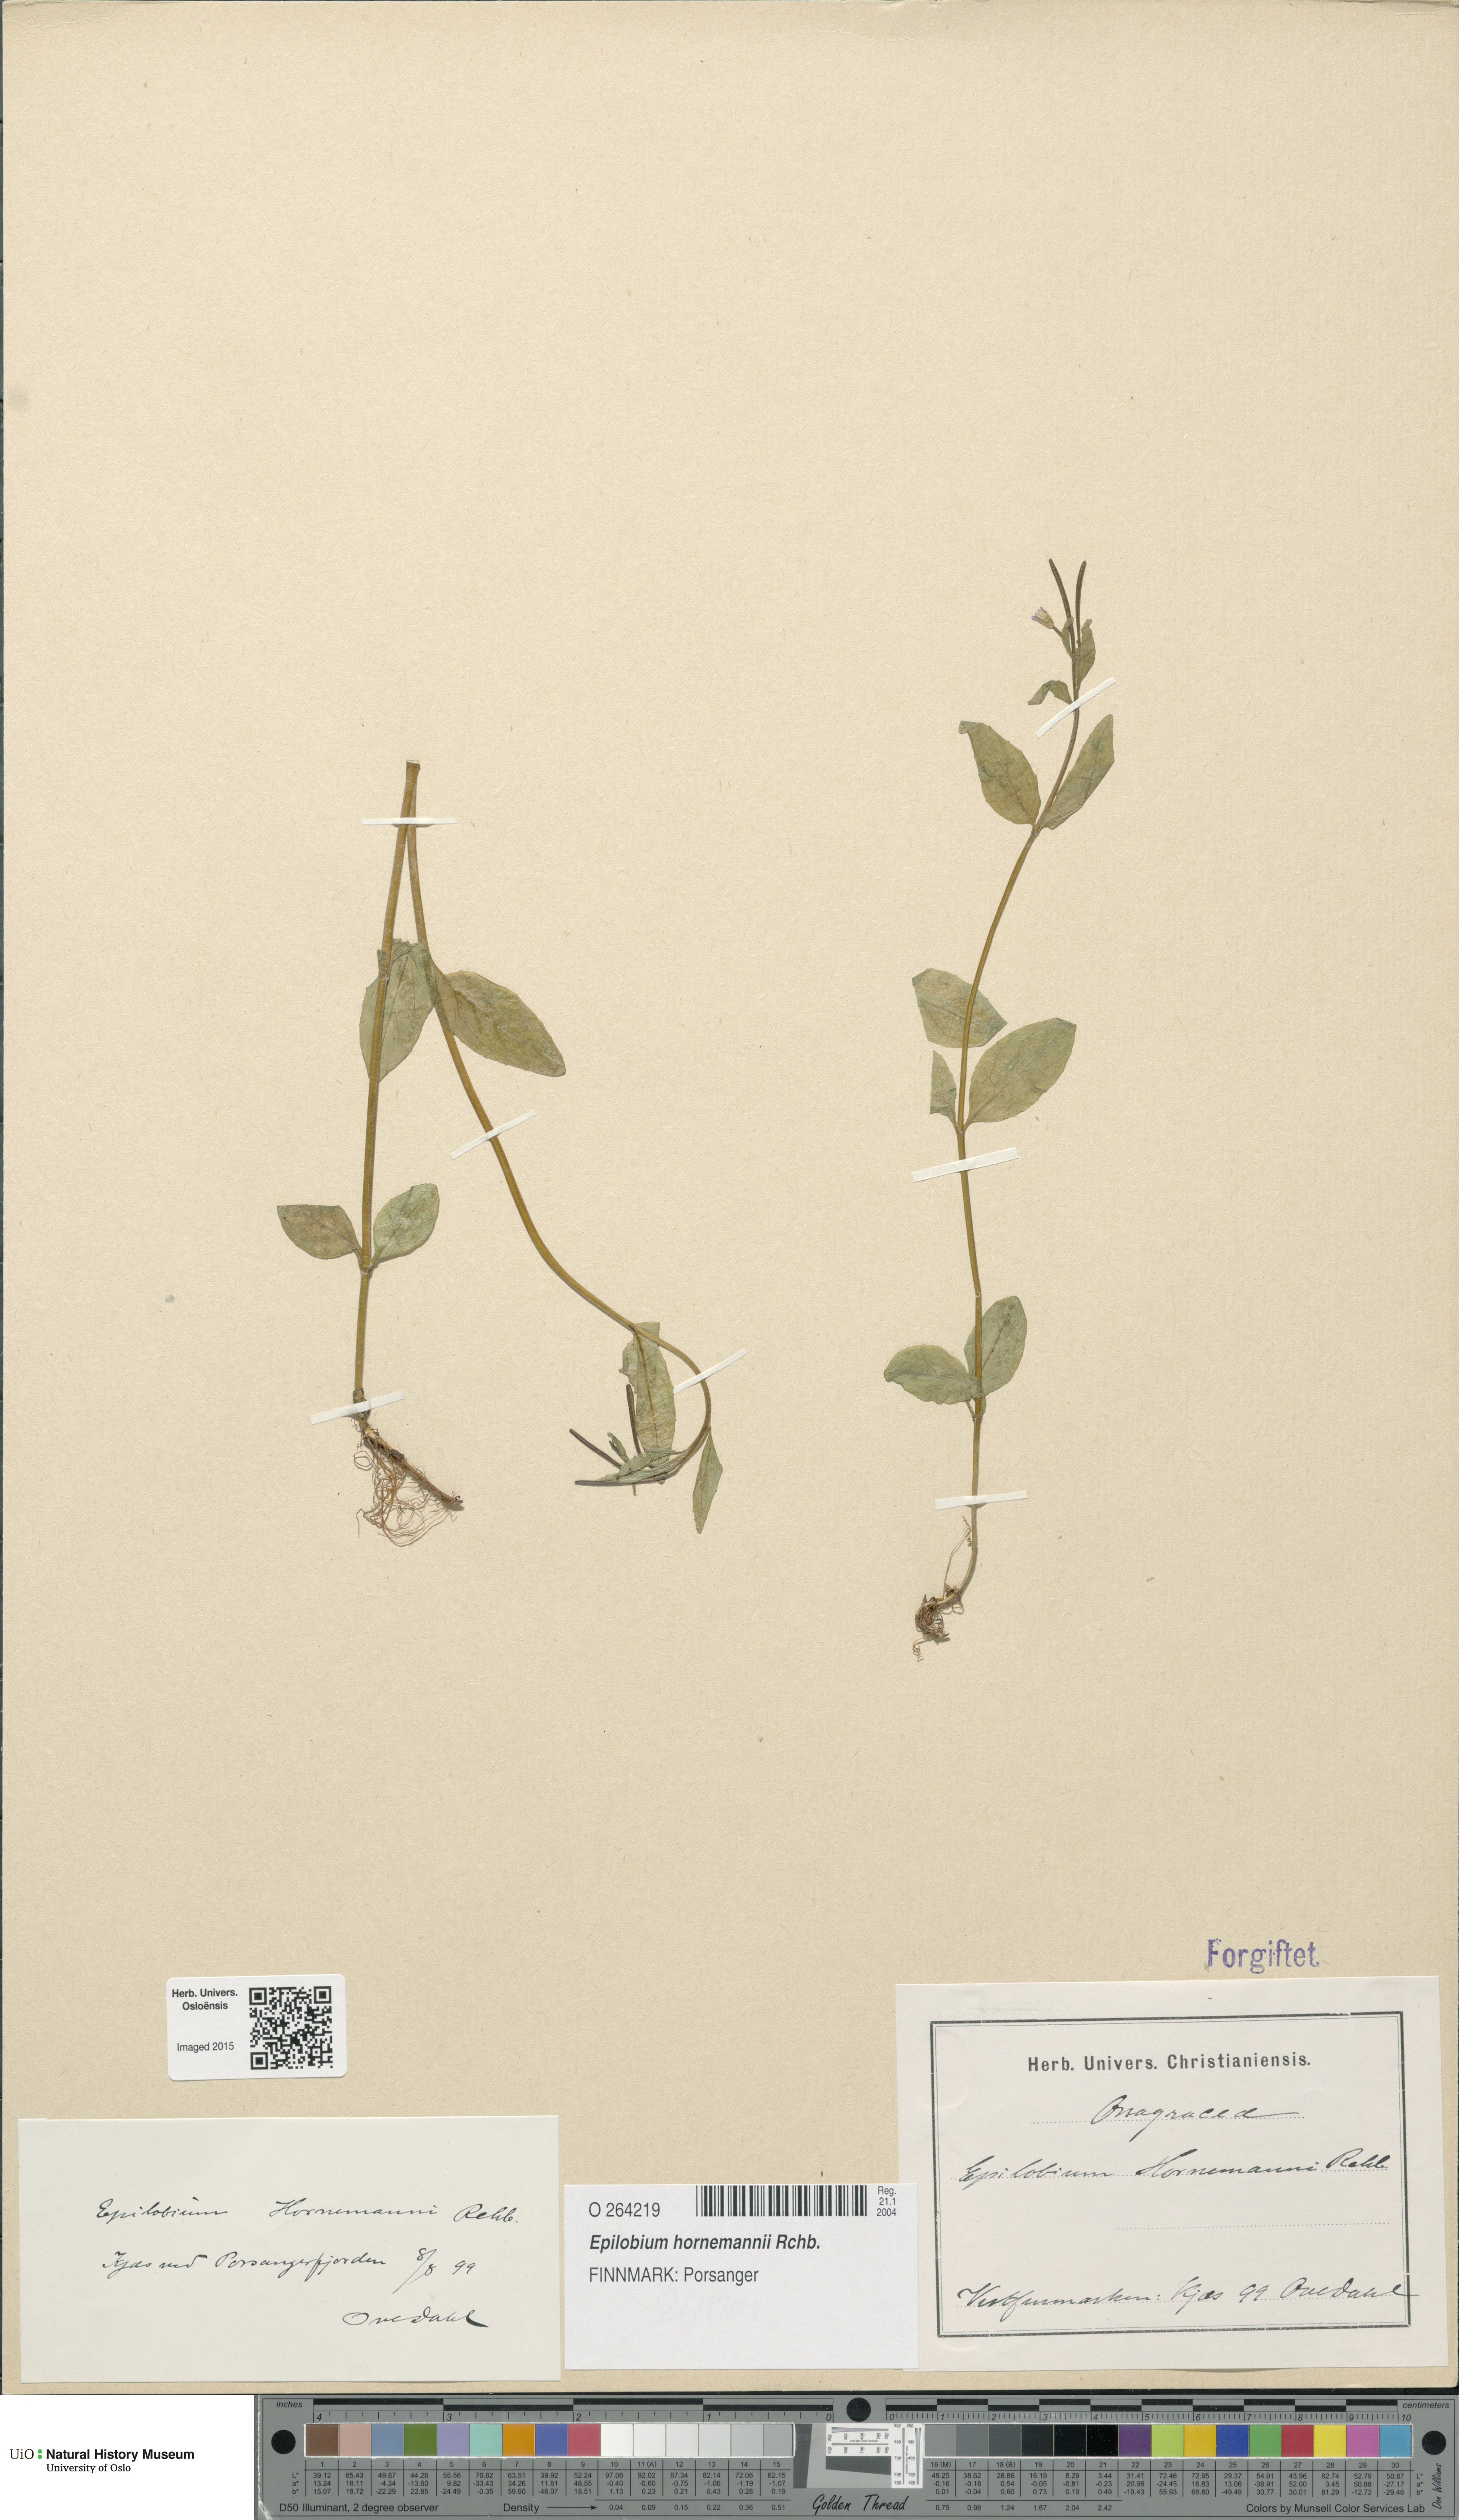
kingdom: Plantae
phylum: Tracheophyta
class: Magnoliopsida
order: Myrtales
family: Onagraceae
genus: Epilobium
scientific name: Epilobium hornemannii
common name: Hornemann's willowherb
